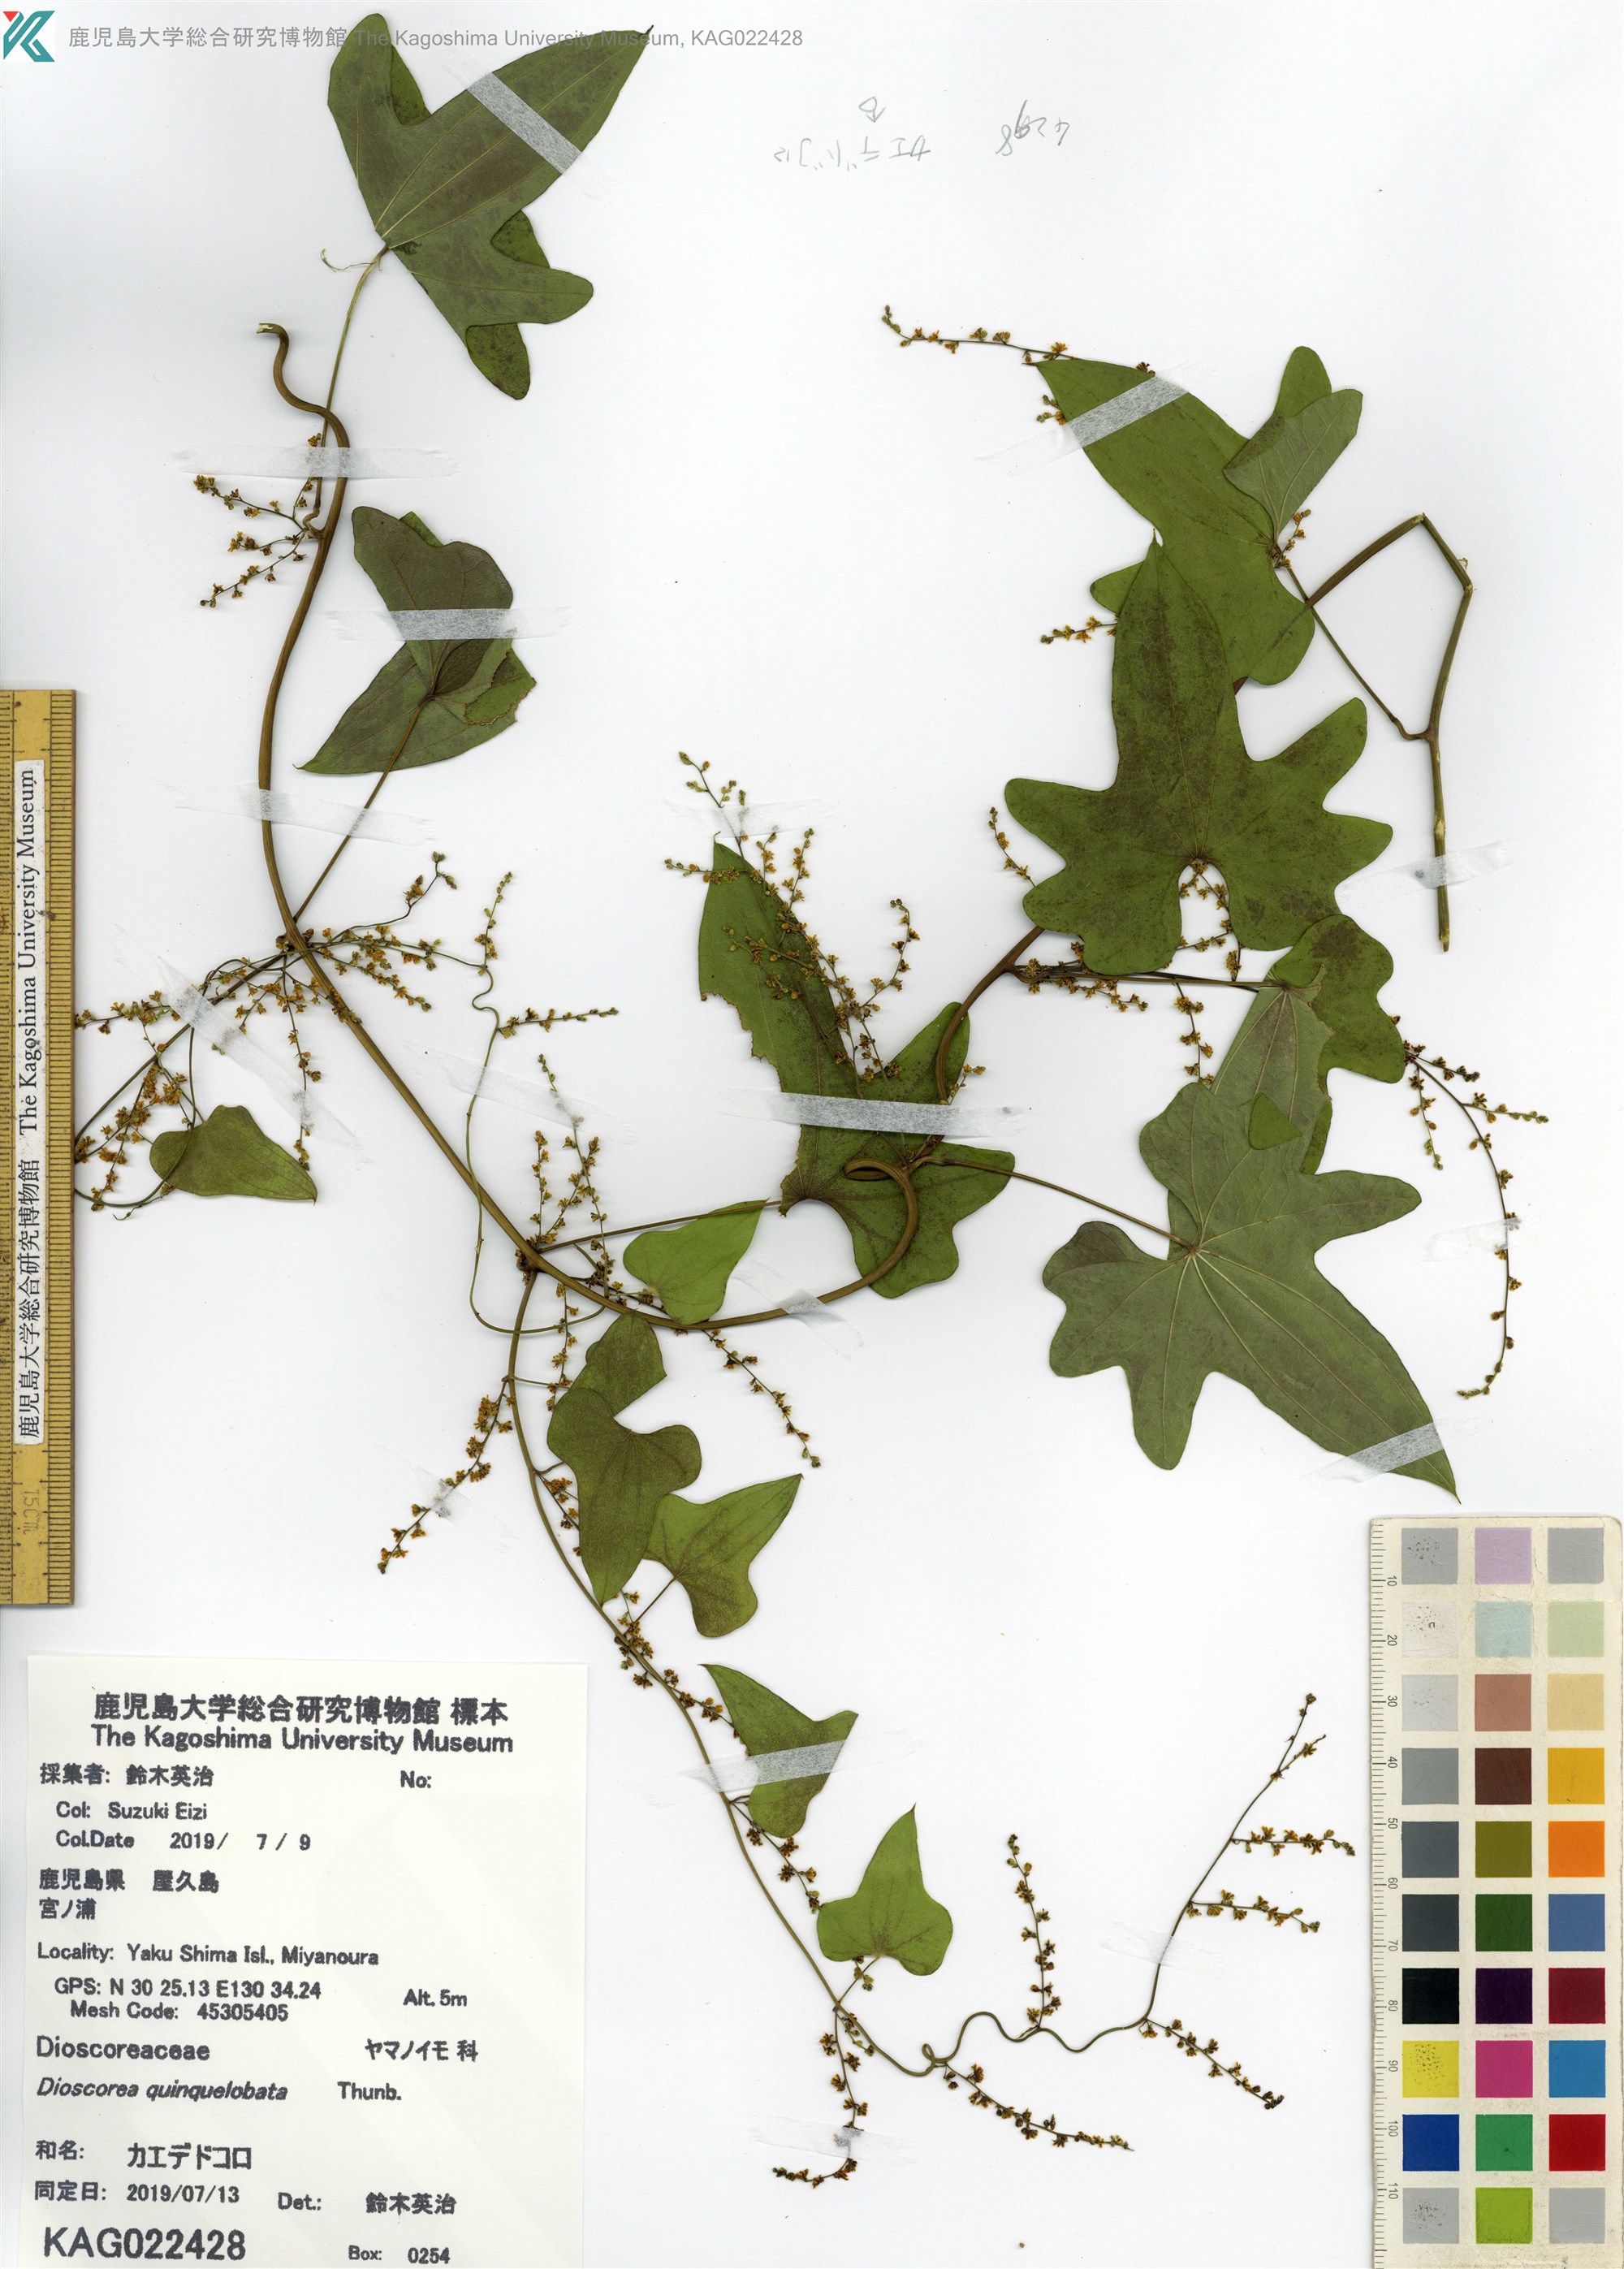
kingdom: Plantae
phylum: Tracheophyta
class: Liliopsida
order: Dioscoreales
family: Dioscoreaceae
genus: Dioscorea
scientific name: Dioscorea quinquelobata
